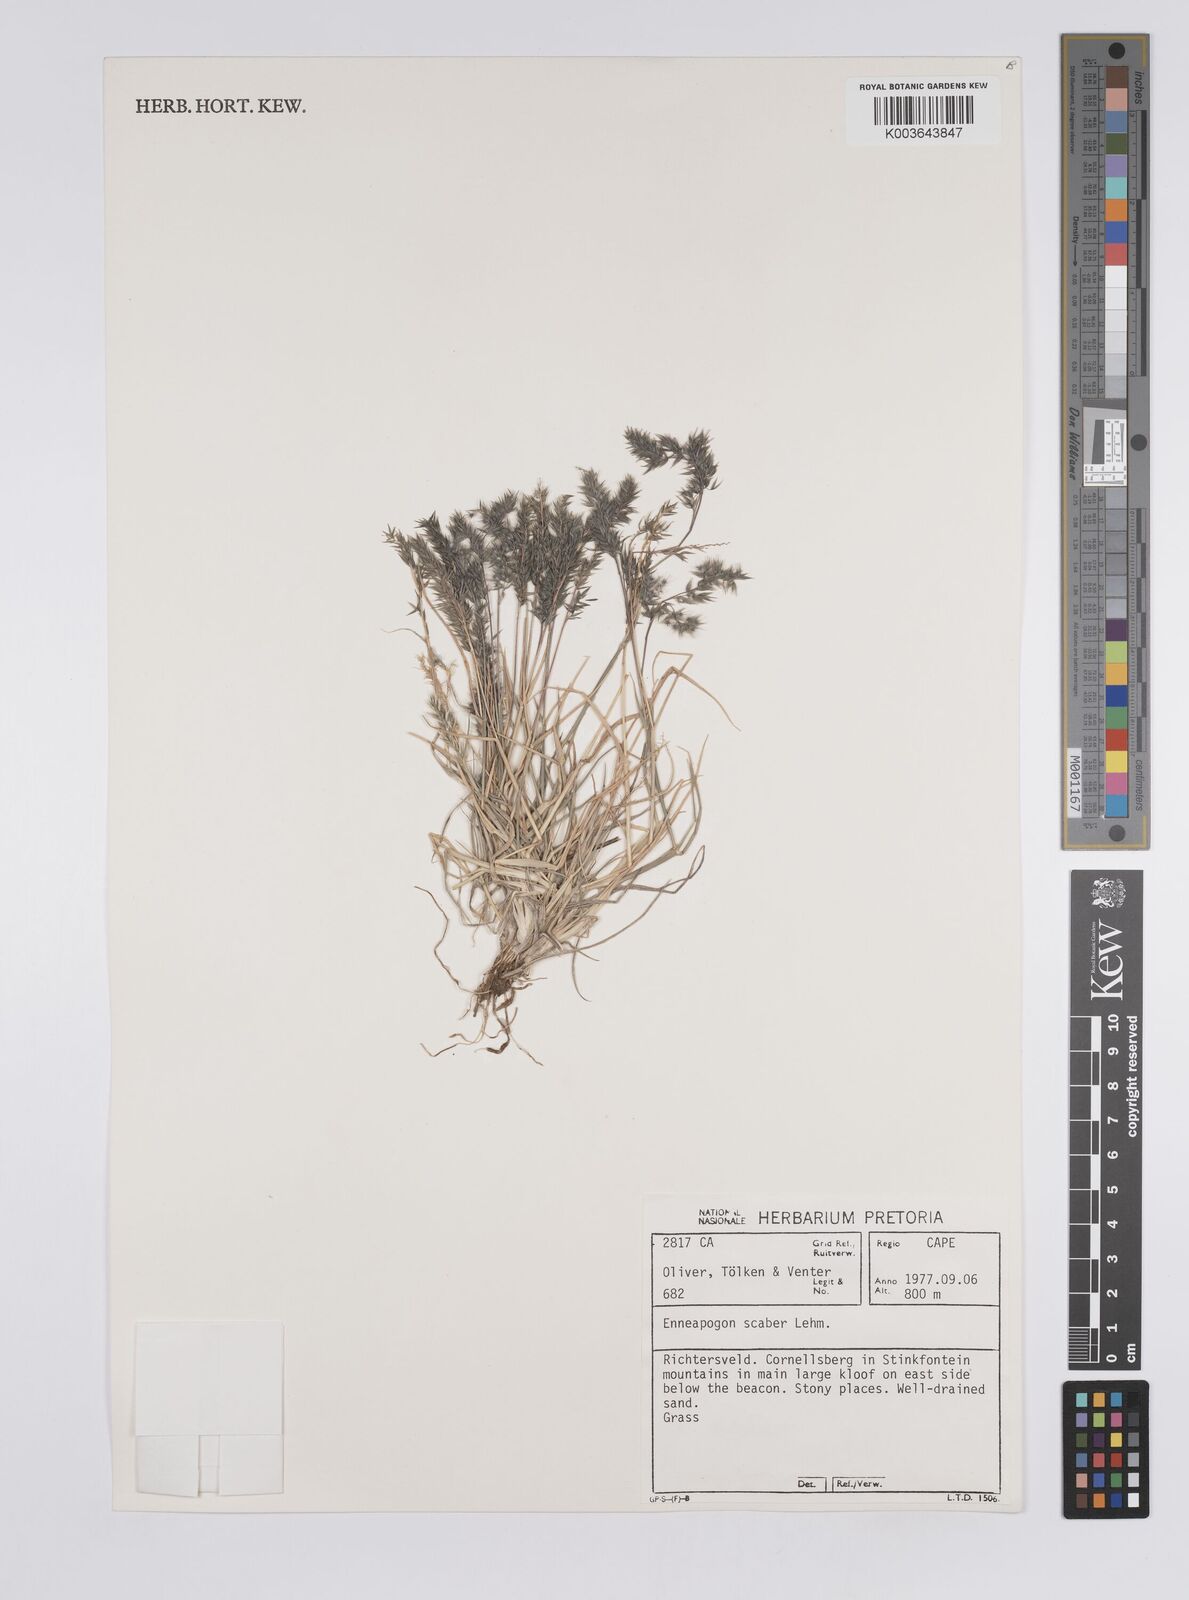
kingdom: Plantae
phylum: Tracheophyta
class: Liliopsida
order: Poales
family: Poaceae
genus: Enneapogon
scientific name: Enneapogon scaber
